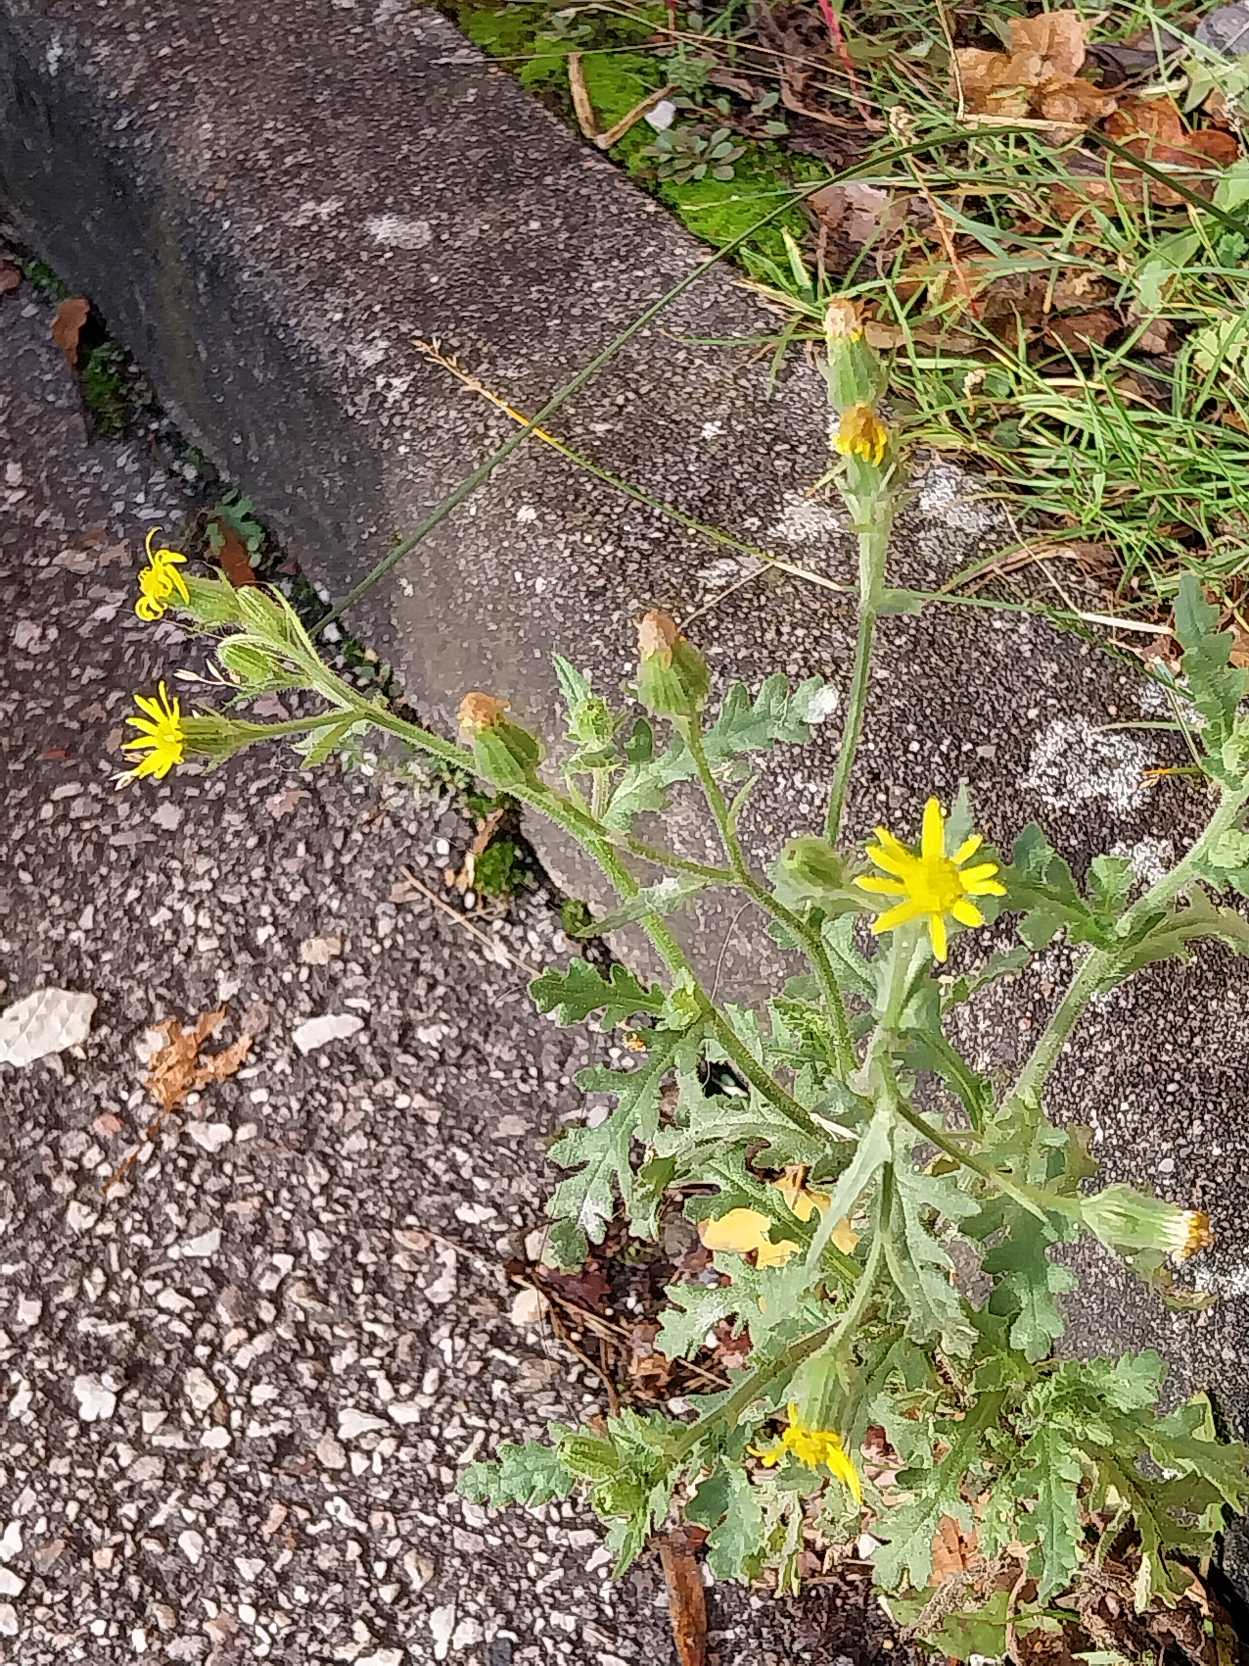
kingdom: Plantae
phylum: Tracheophyta
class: Magnoliopsida
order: Asterales
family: Asteraceae
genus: Senecio
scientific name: Senecio viscosus
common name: Klæbrig brandbæger
